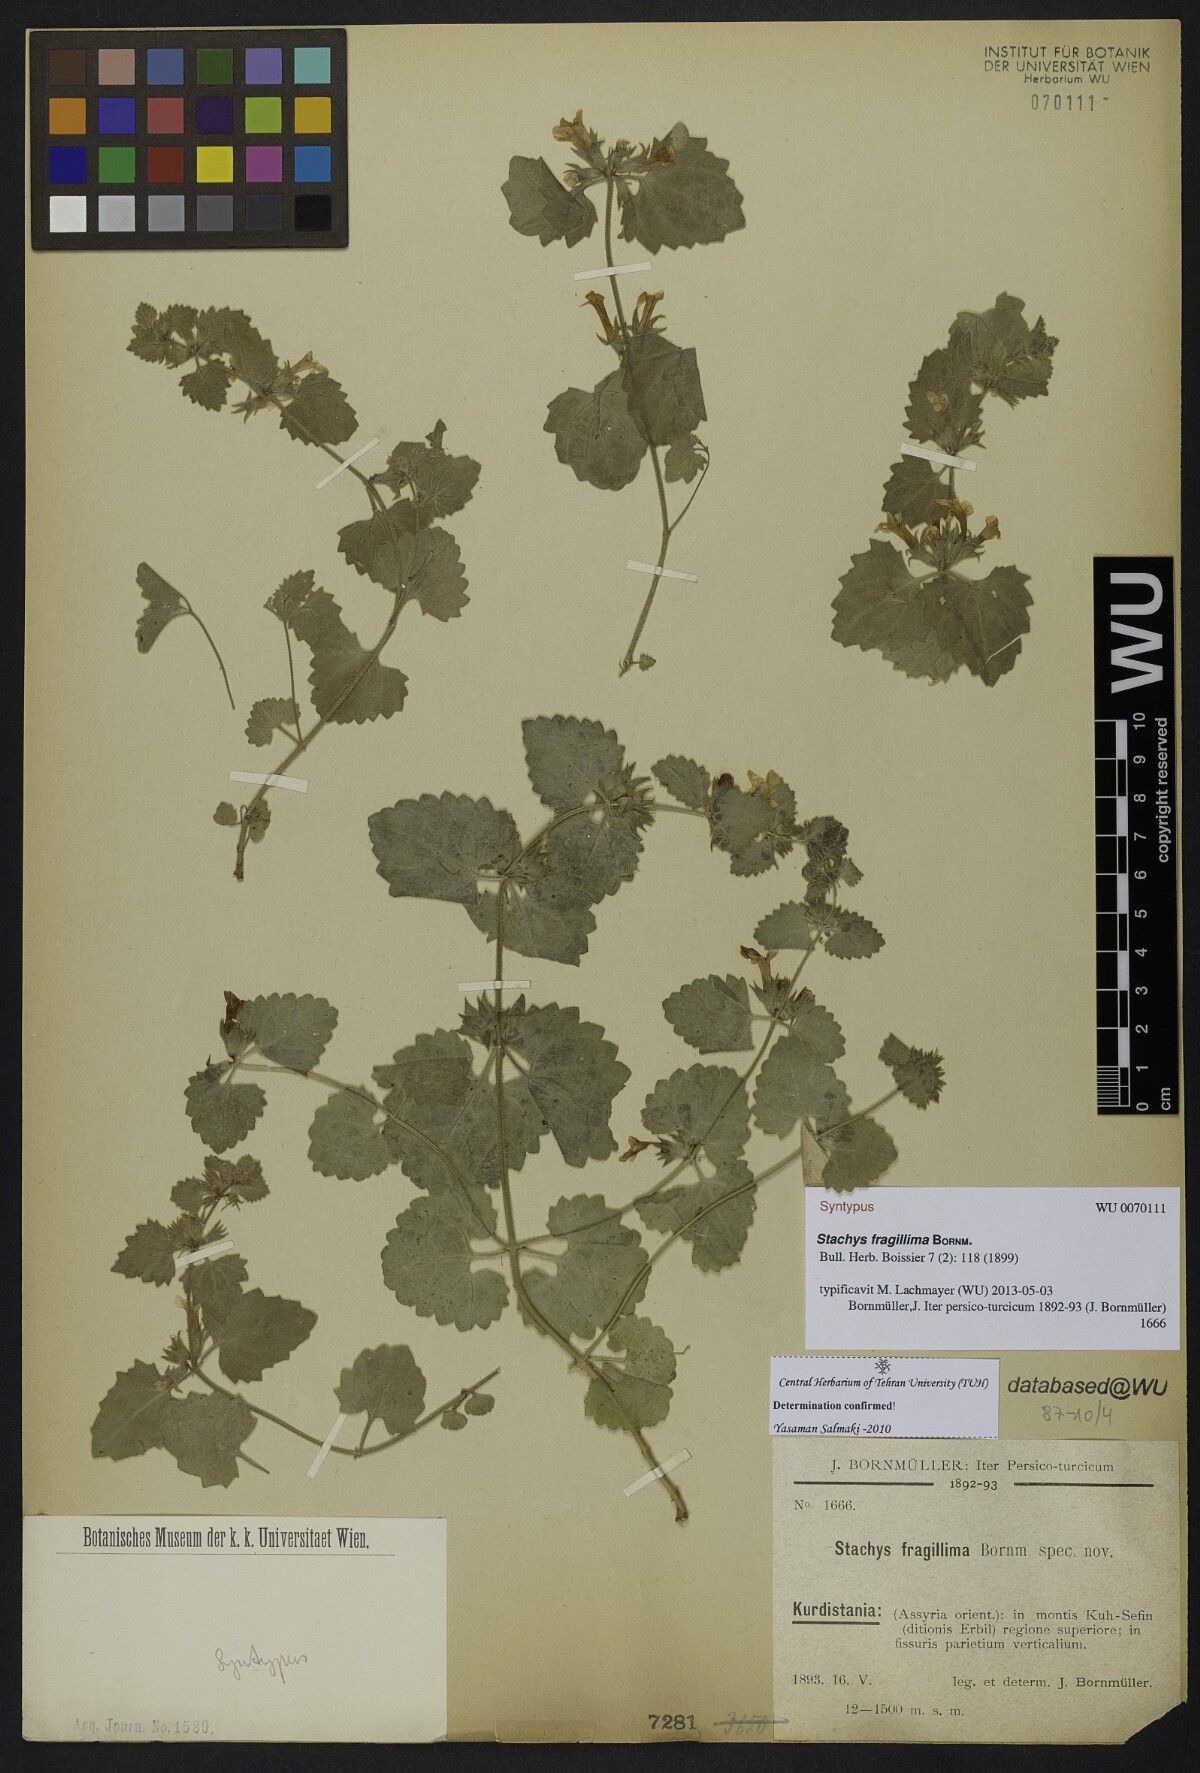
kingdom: Plantae
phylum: Tracheophyta
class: Magnoliopsida
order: Lamiales
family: Lamiaceae
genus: Stachys
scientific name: Stachys fragillima
